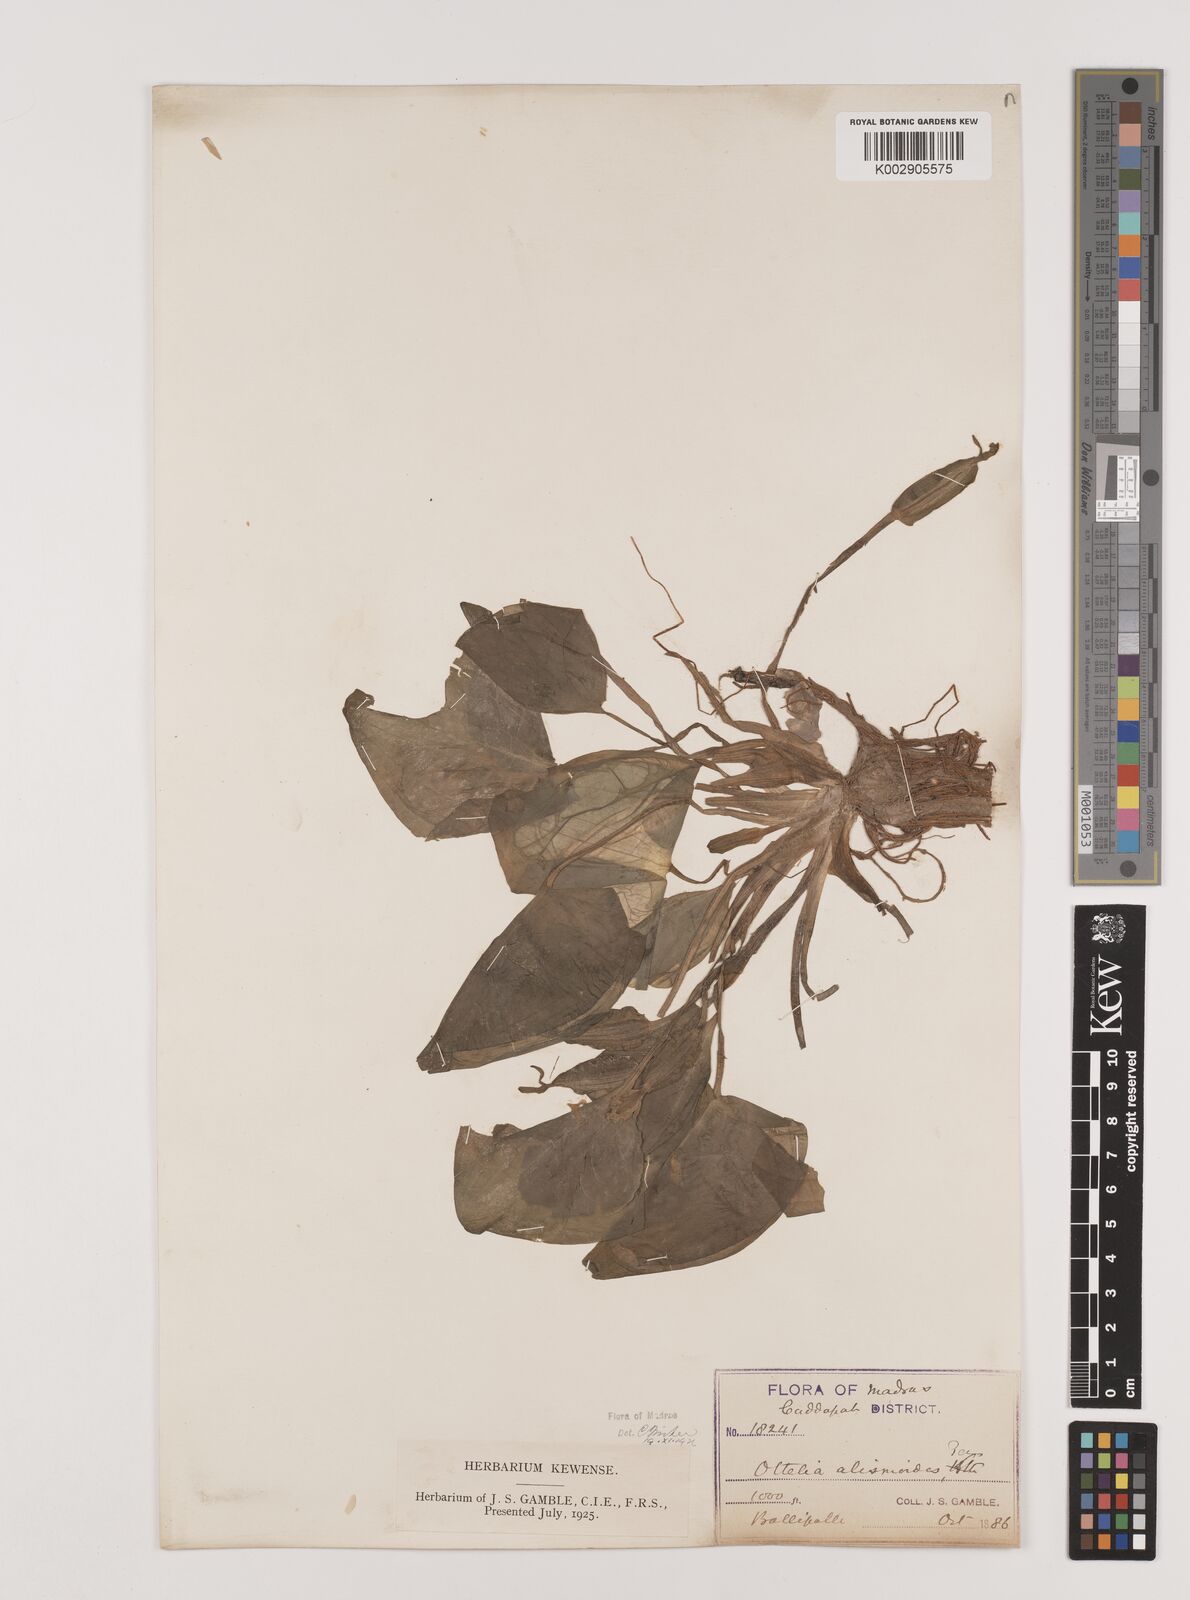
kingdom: Plantae
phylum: Tracheophyta
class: Liliopsida
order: Alismatales
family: Hydrocharitaceae
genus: Ottelia
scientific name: Ottelia alismoides
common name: Duck-lettuce
